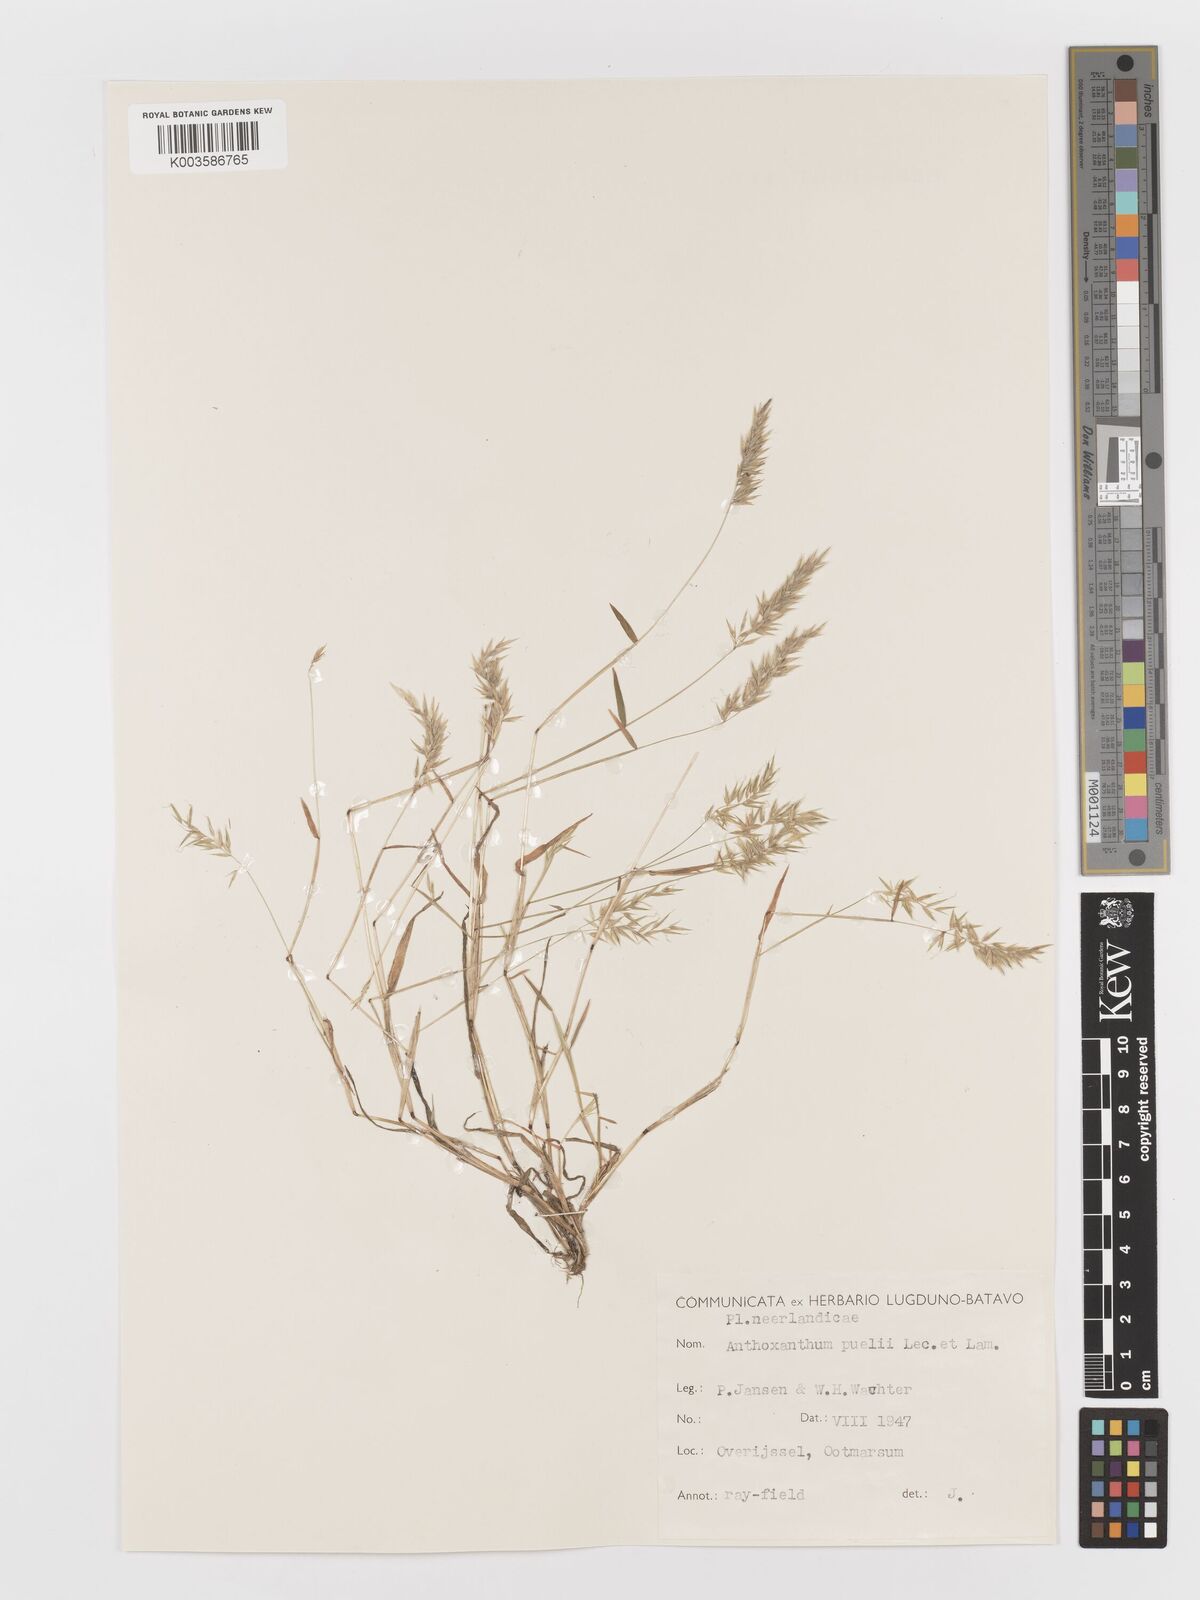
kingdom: Plantae
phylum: Tracheophyta
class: Liliopsida
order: Poales
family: Poaceae
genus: Anthoxanthum
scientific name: Anthoxanthum aristatum
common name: Annual vernal-grass
